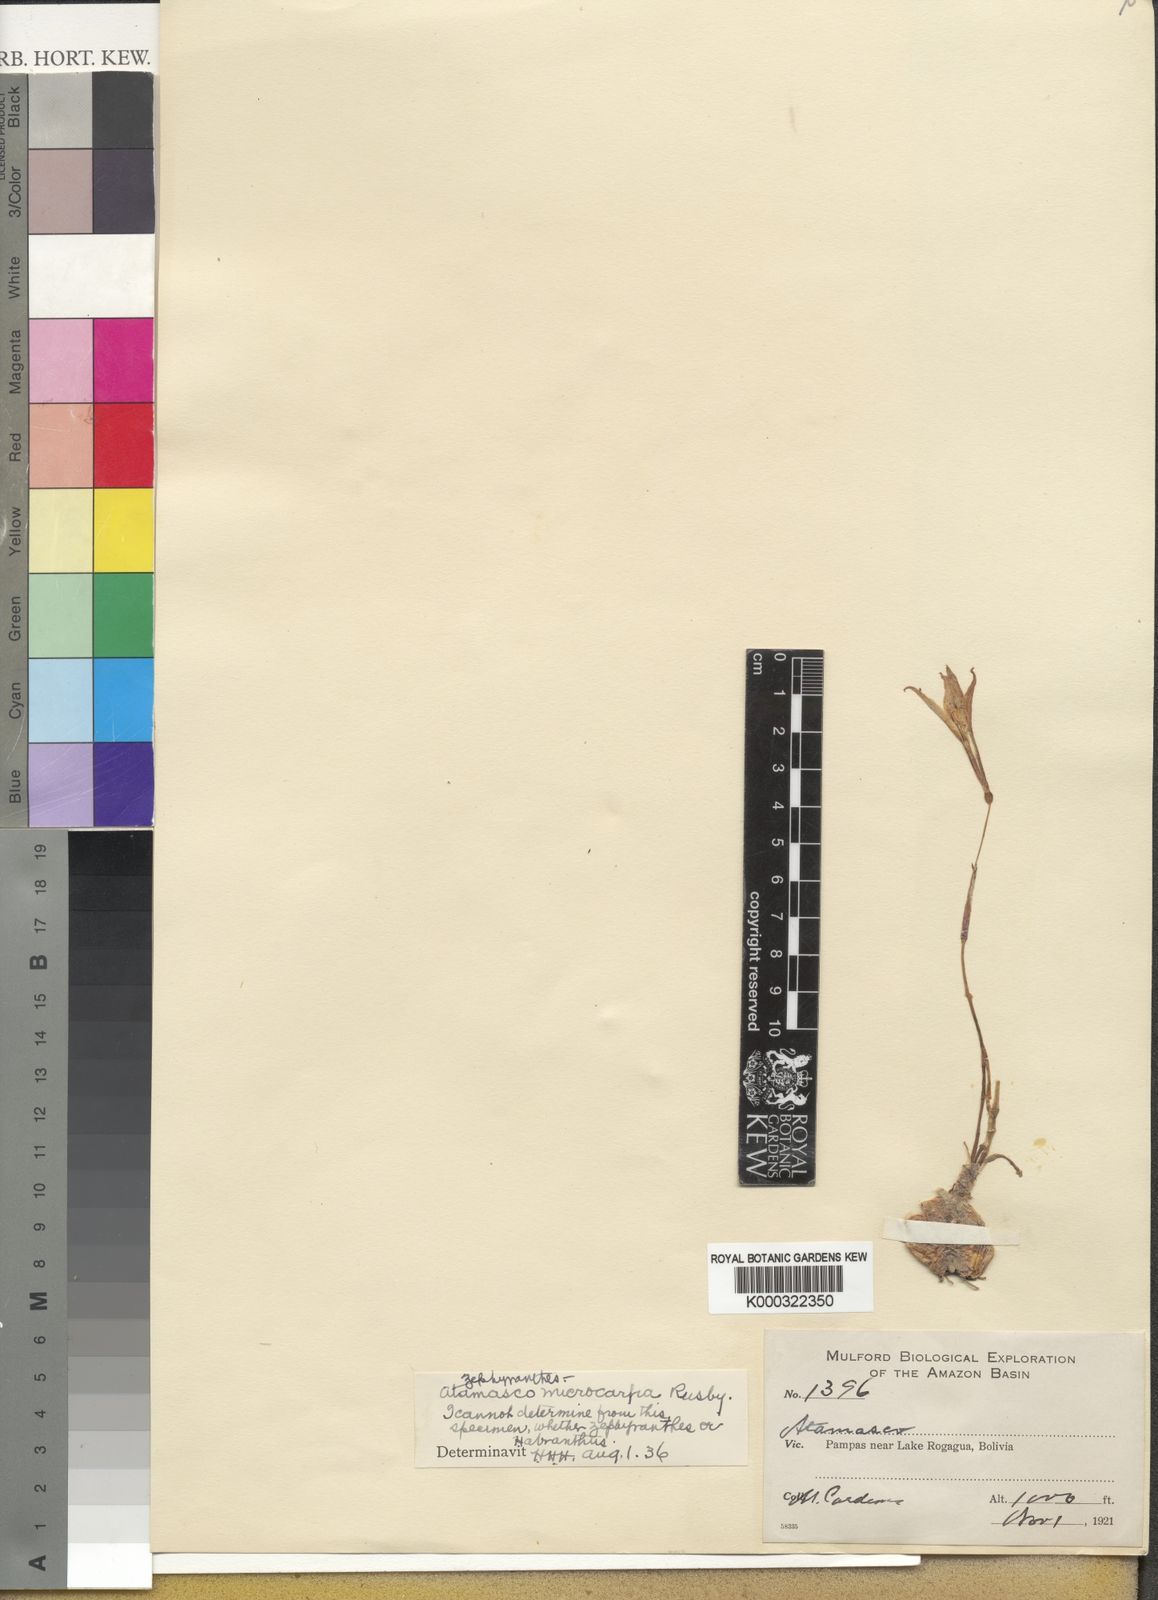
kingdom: Plantae
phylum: Tracheophyta
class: Liliopsida
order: Asparagales
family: Amaryllidaceae
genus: Zephyranthes
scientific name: Zephyranthes atamasco
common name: Atamasco lily
